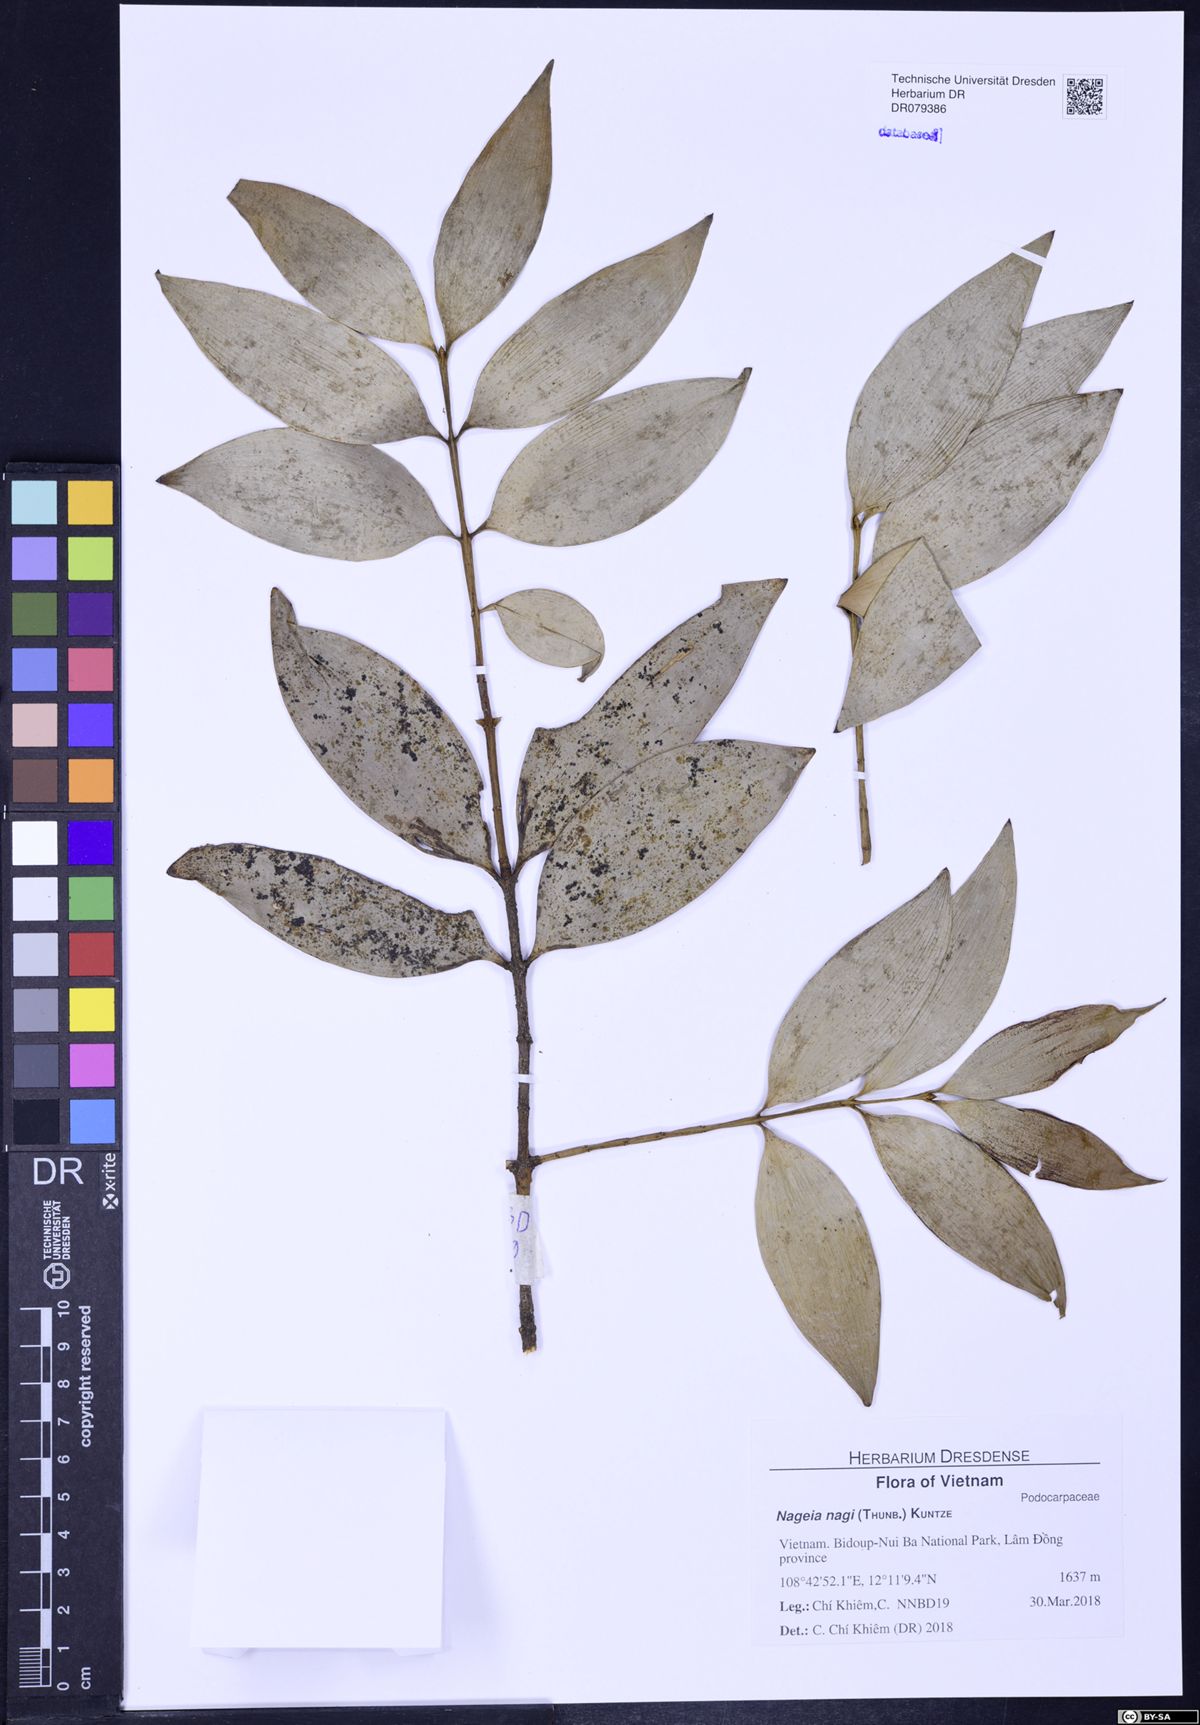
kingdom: Plantae
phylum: Tracheophyta
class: Pinopsida
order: Pinales
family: Podocarpaceae
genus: Nageia
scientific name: Nageia nagi
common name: Kaphal
